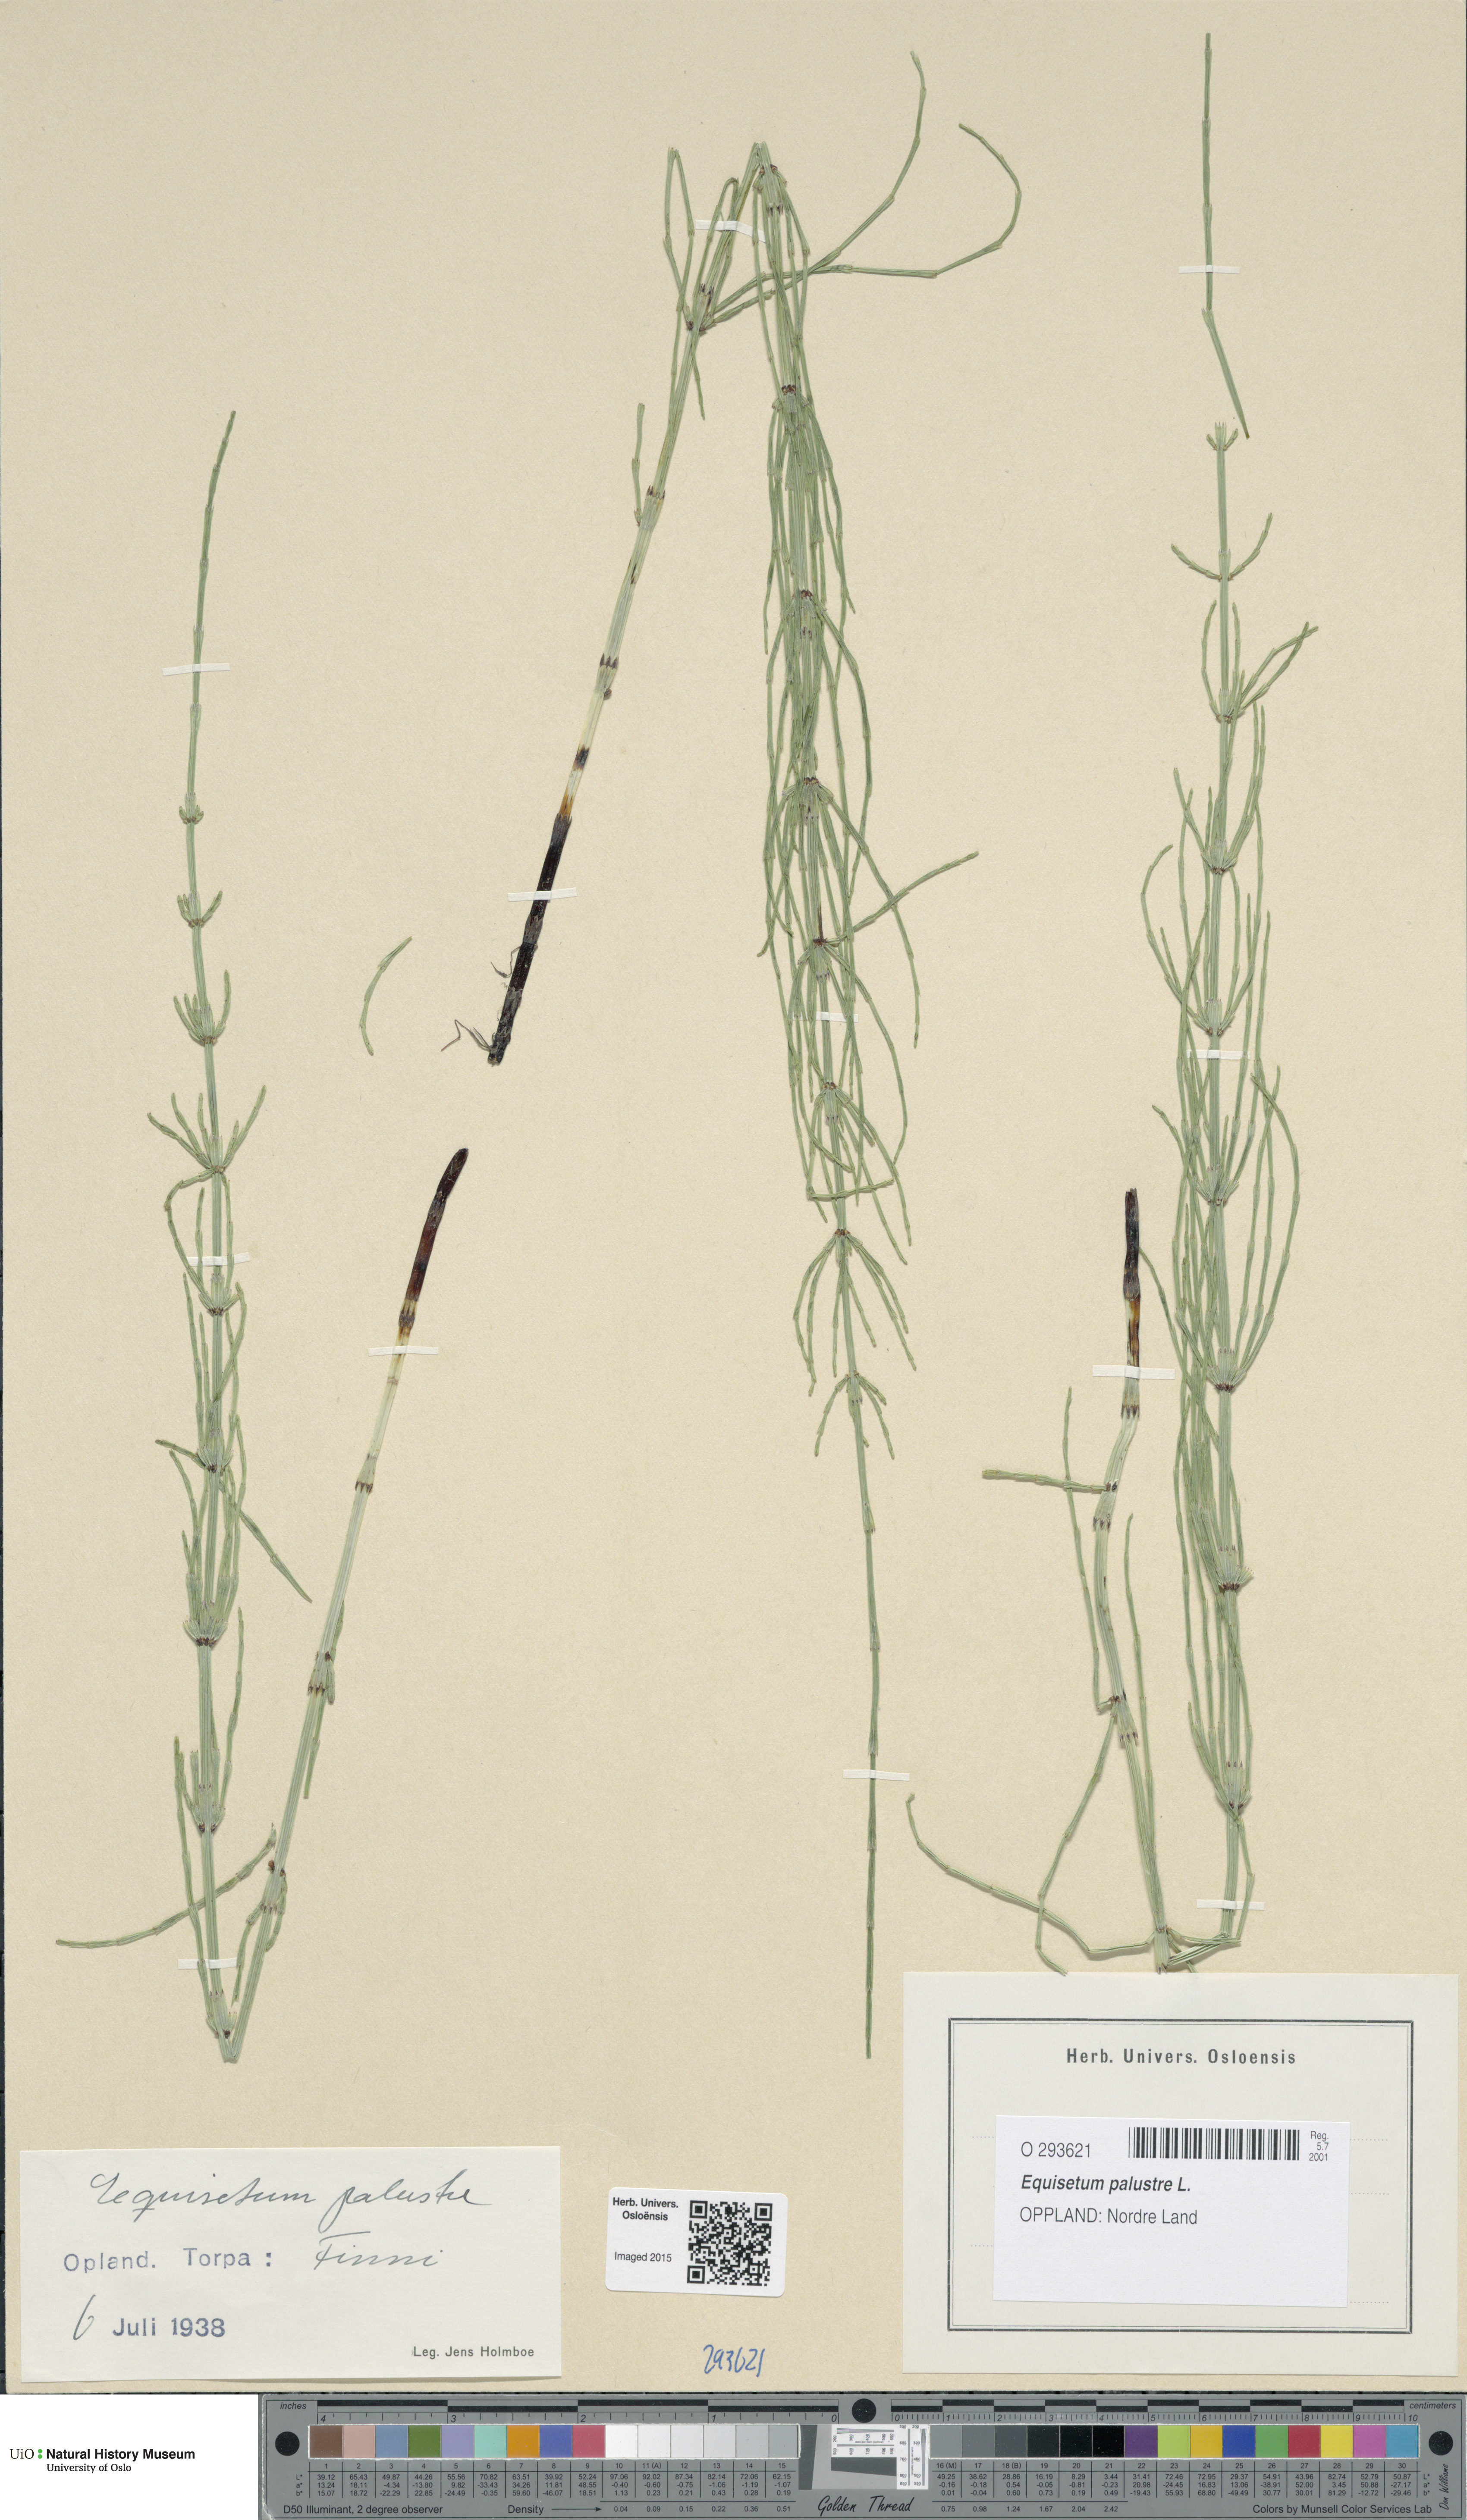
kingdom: Plantae
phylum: Tracheophyta
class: Polypodiopsida
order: Equisetales
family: Equisetaceae
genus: Equisetum
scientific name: Equisetum palustre
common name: Marsh horsetail
